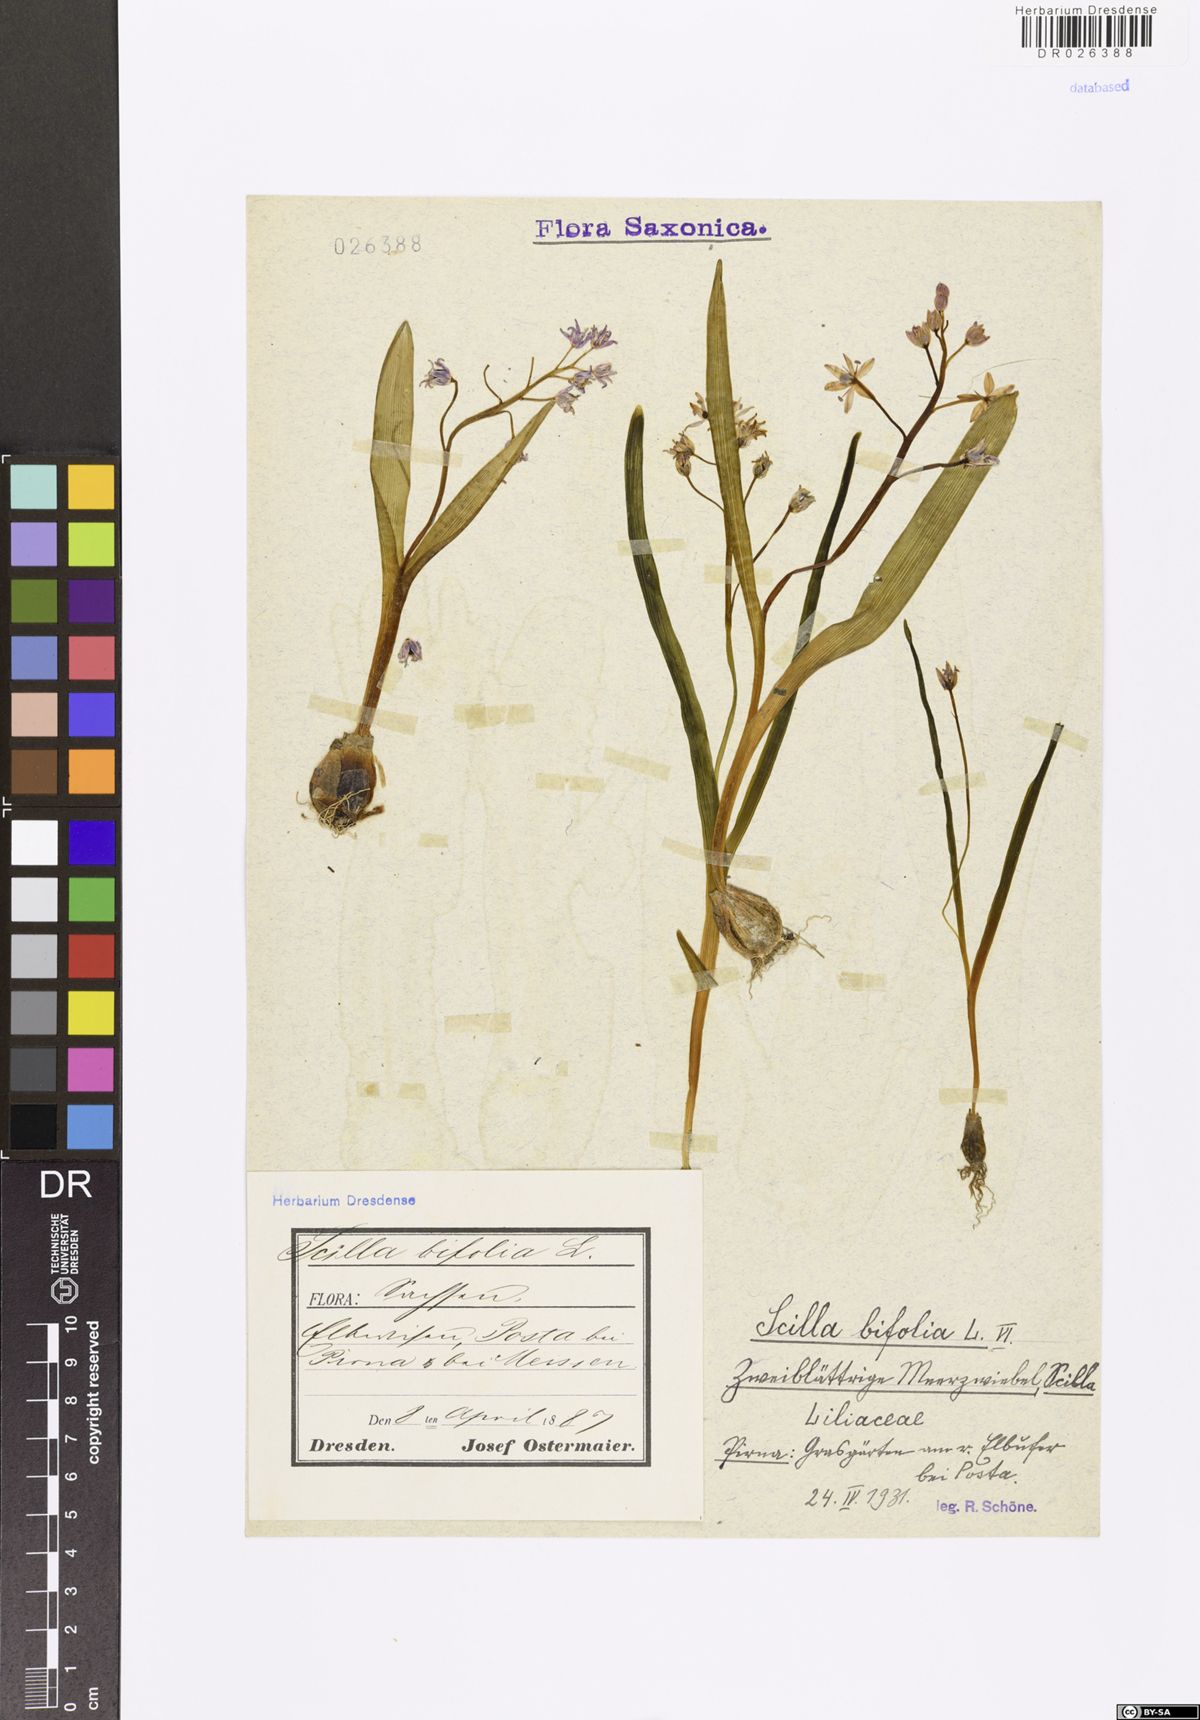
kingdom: Plantae
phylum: Tracheophyta
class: Liliopsida
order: Asparagales
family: Asparagaceae
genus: Scilla
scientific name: Scilla vindobonensis
